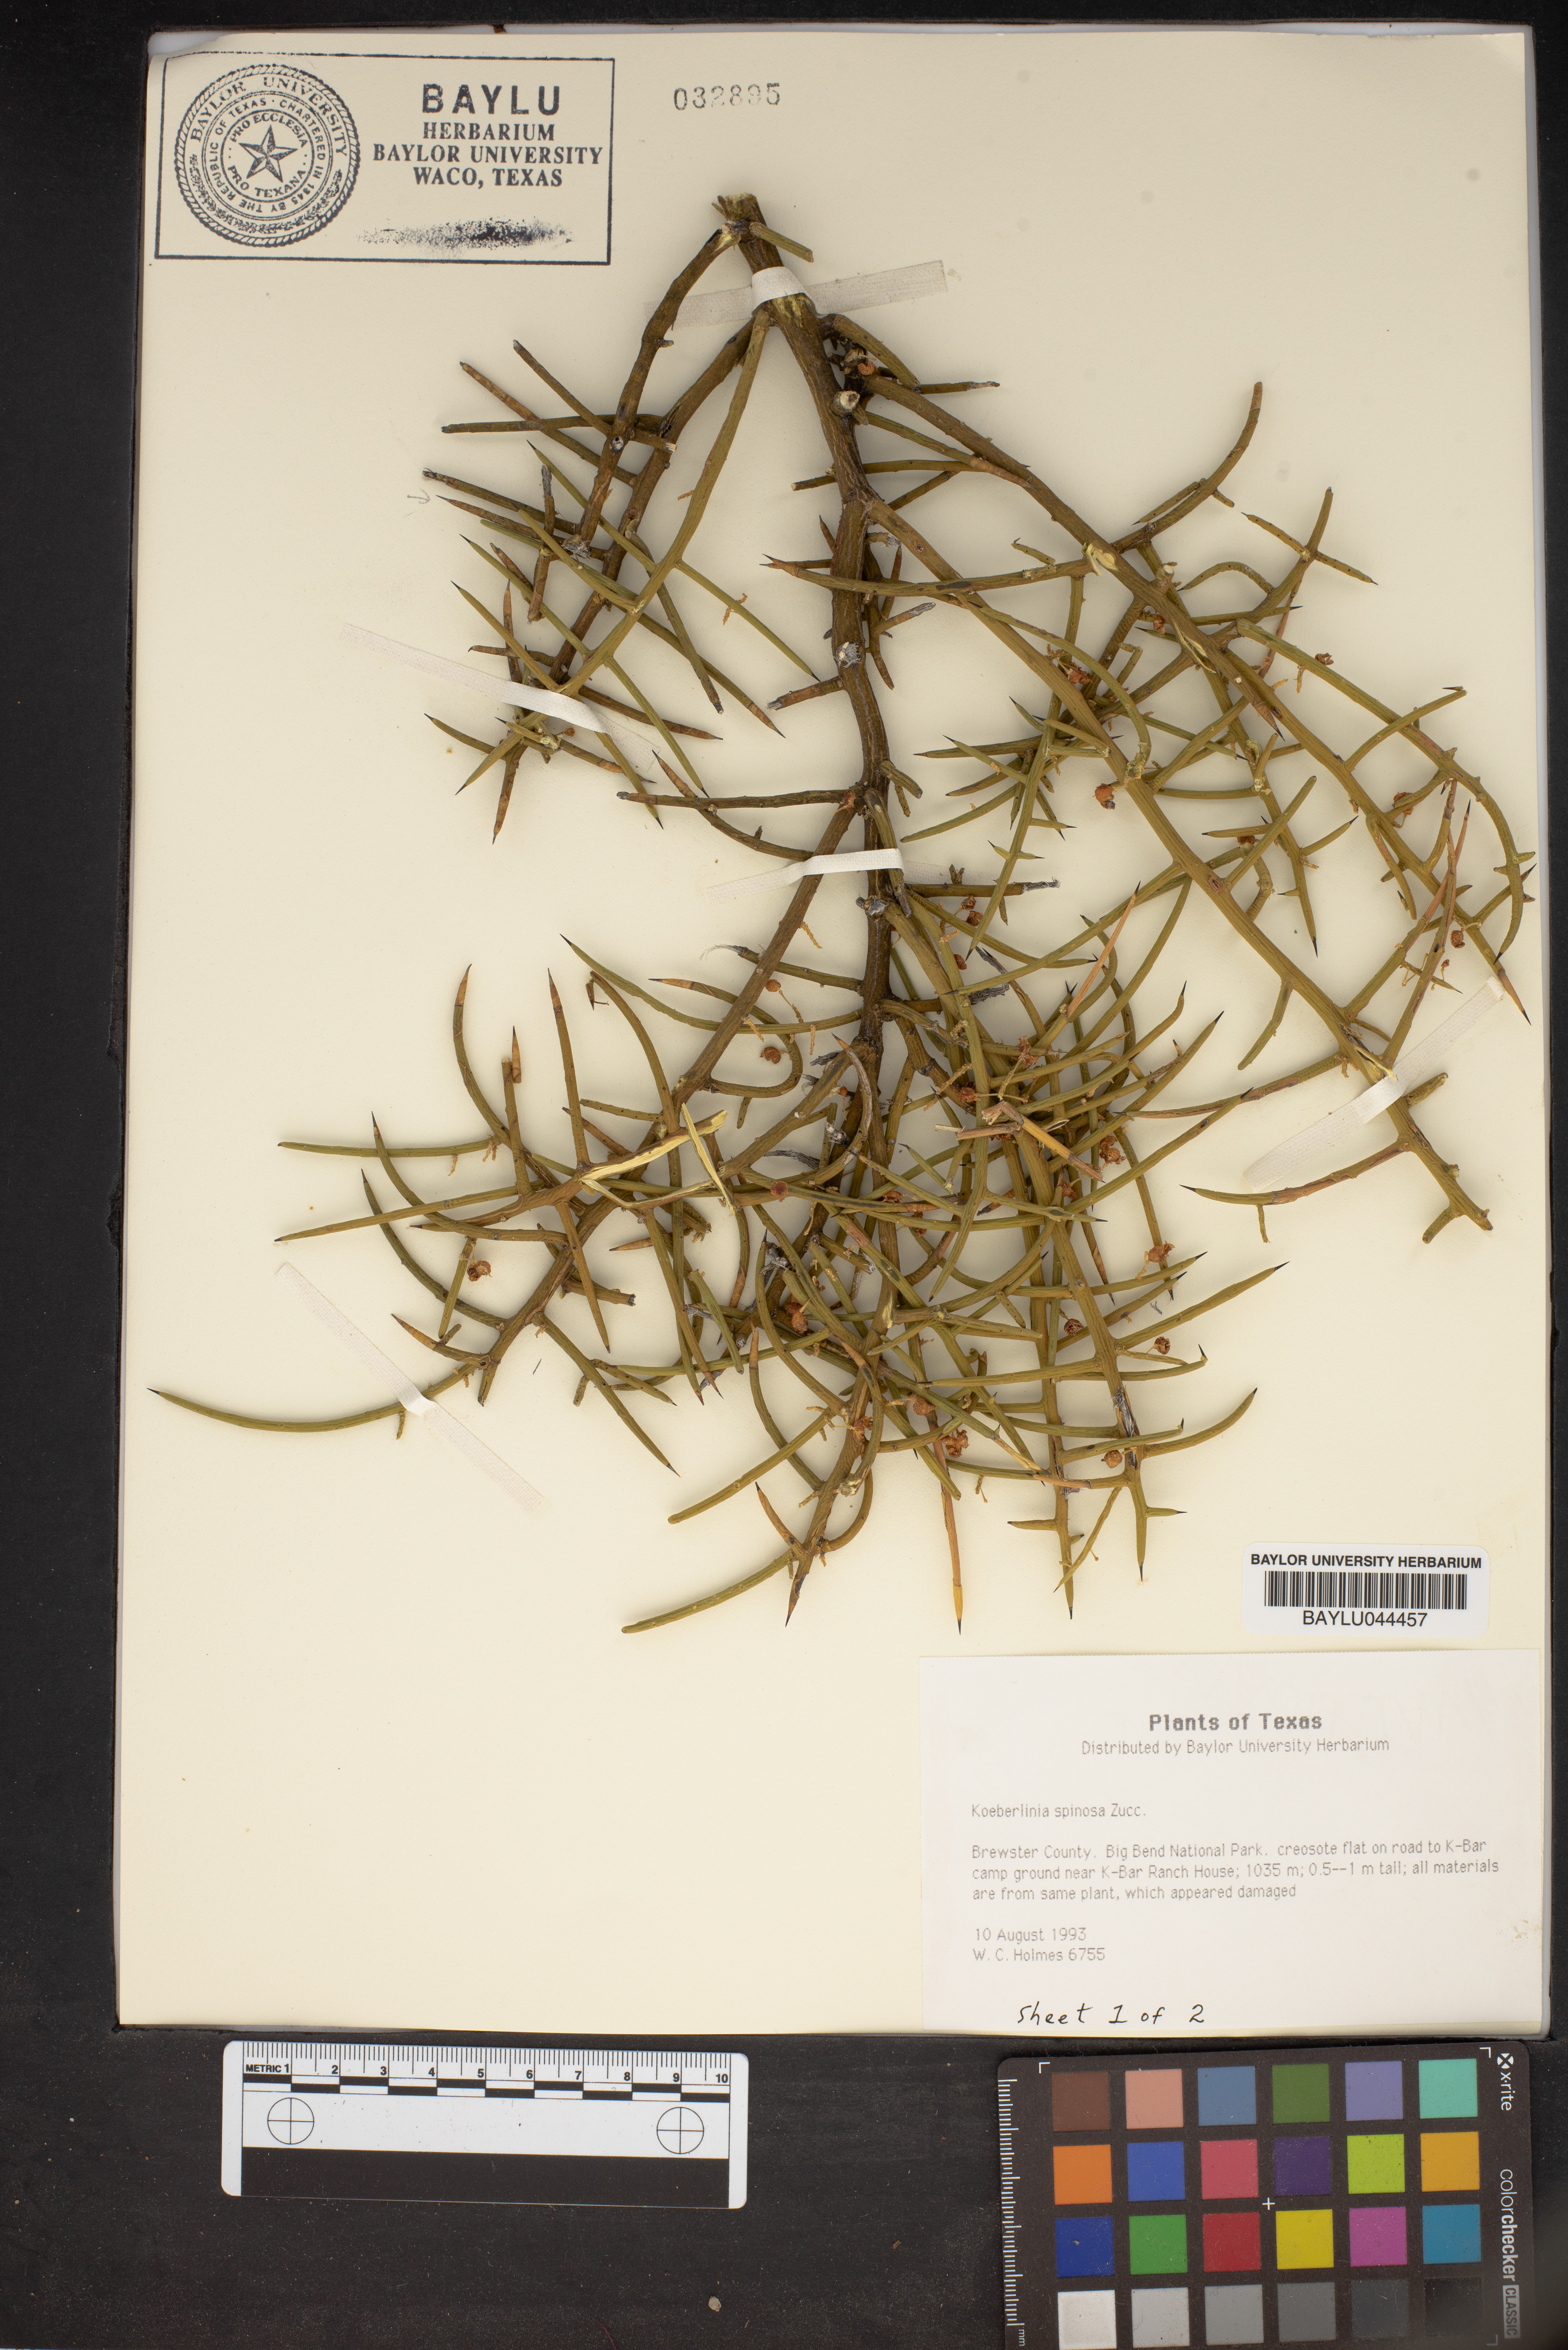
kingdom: Plantae
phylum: Tracheophyta
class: Magnoliopsida
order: Brassicales
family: Koeberliniaceae
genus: Koeberlinia
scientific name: Koeberlinia spinosa
